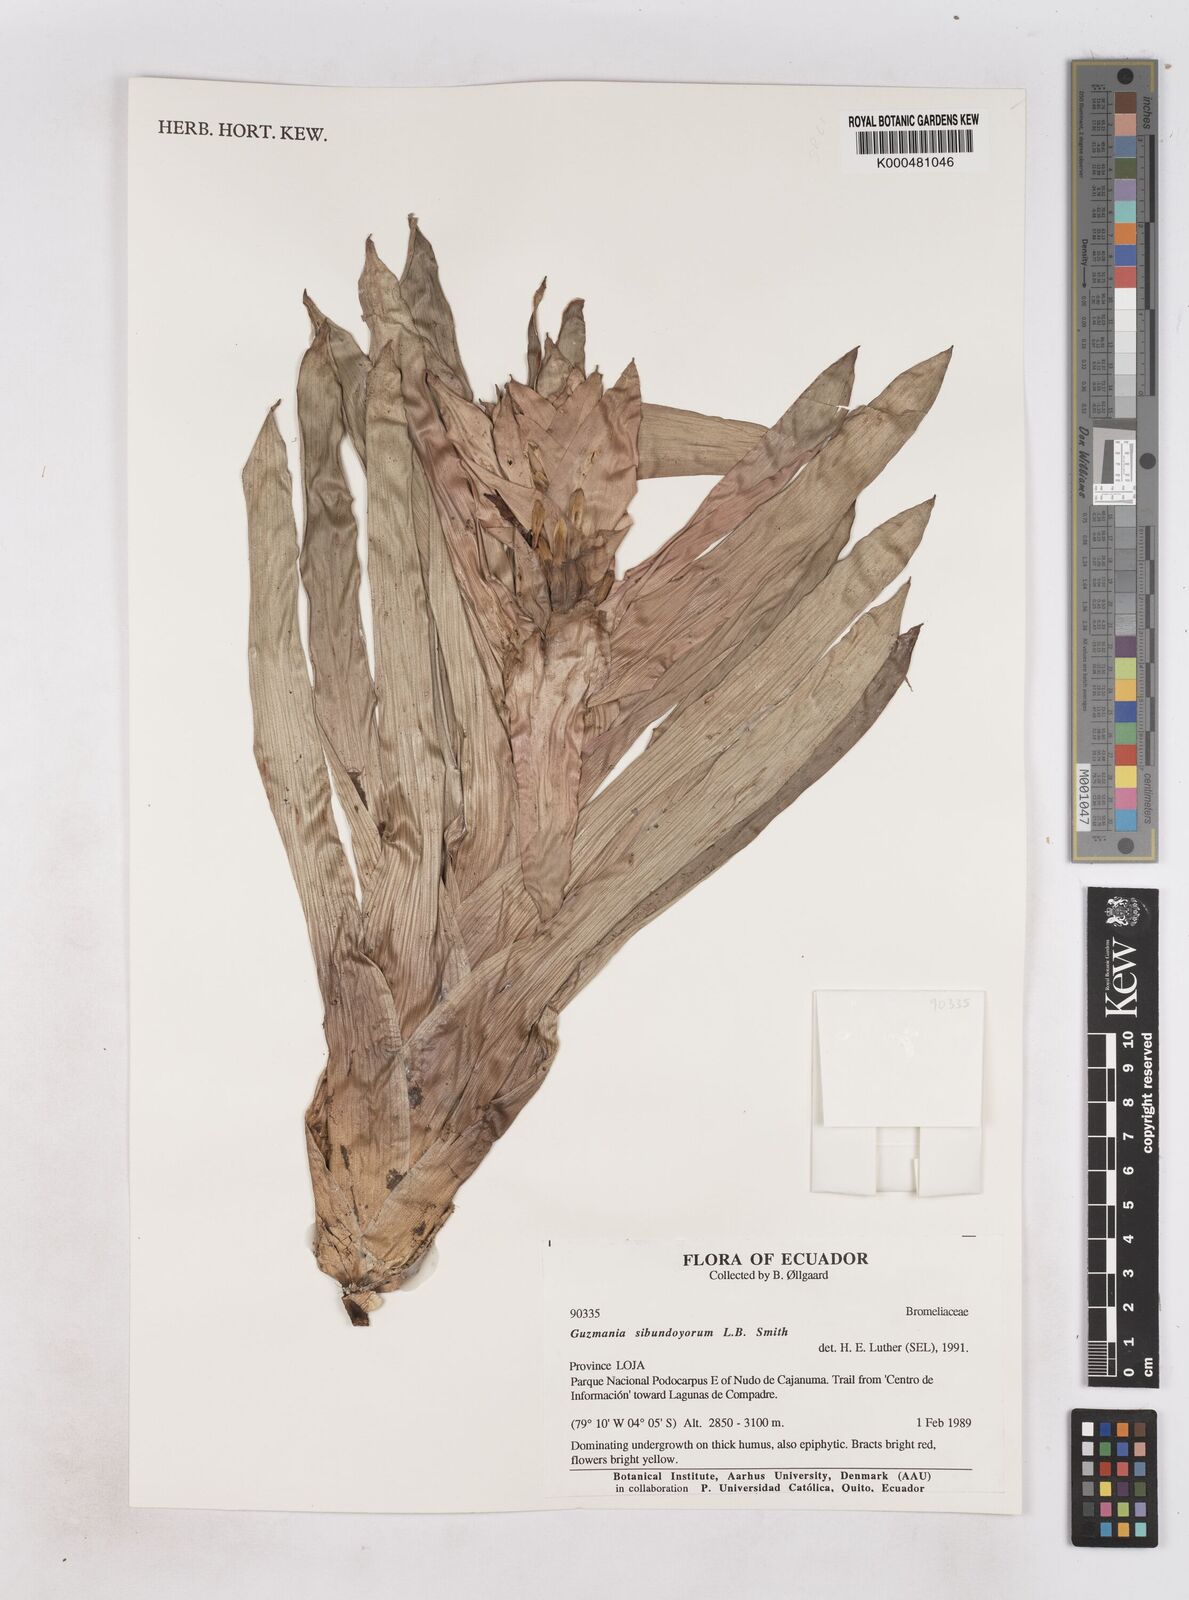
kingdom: Plantae
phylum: Tracheophyta
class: Liliopsida
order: Poales
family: Bromeliaceae
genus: Guzmania
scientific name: Guzmania sibundoyorum
